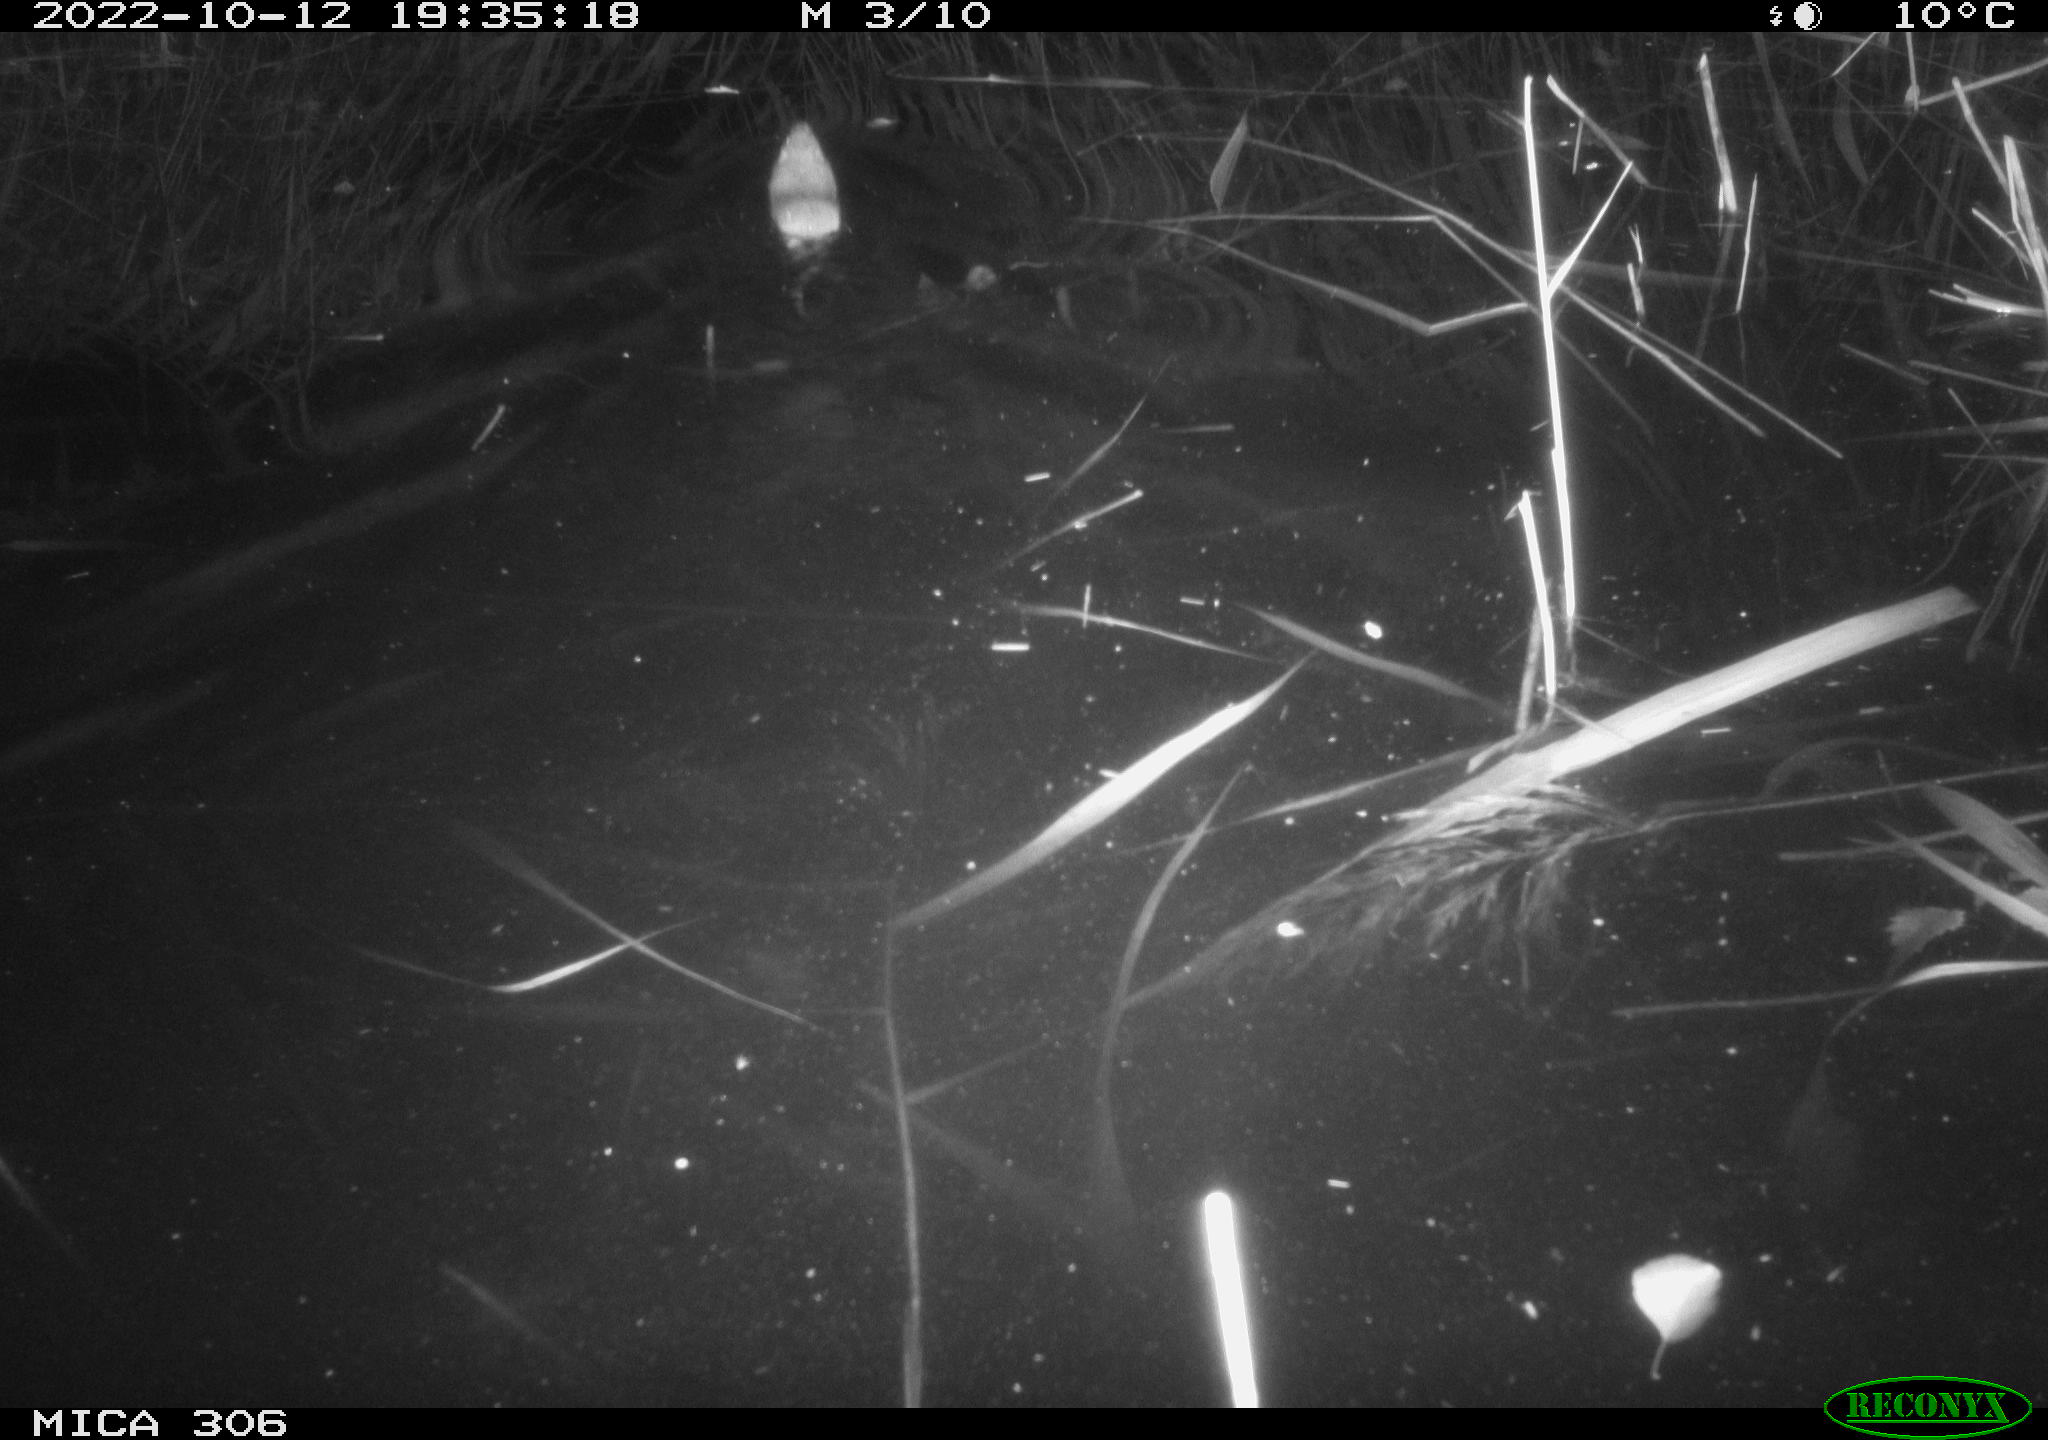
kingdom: Animalia
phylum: Chordata
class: Mammalia
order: Rodentia
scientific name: Rodentia
